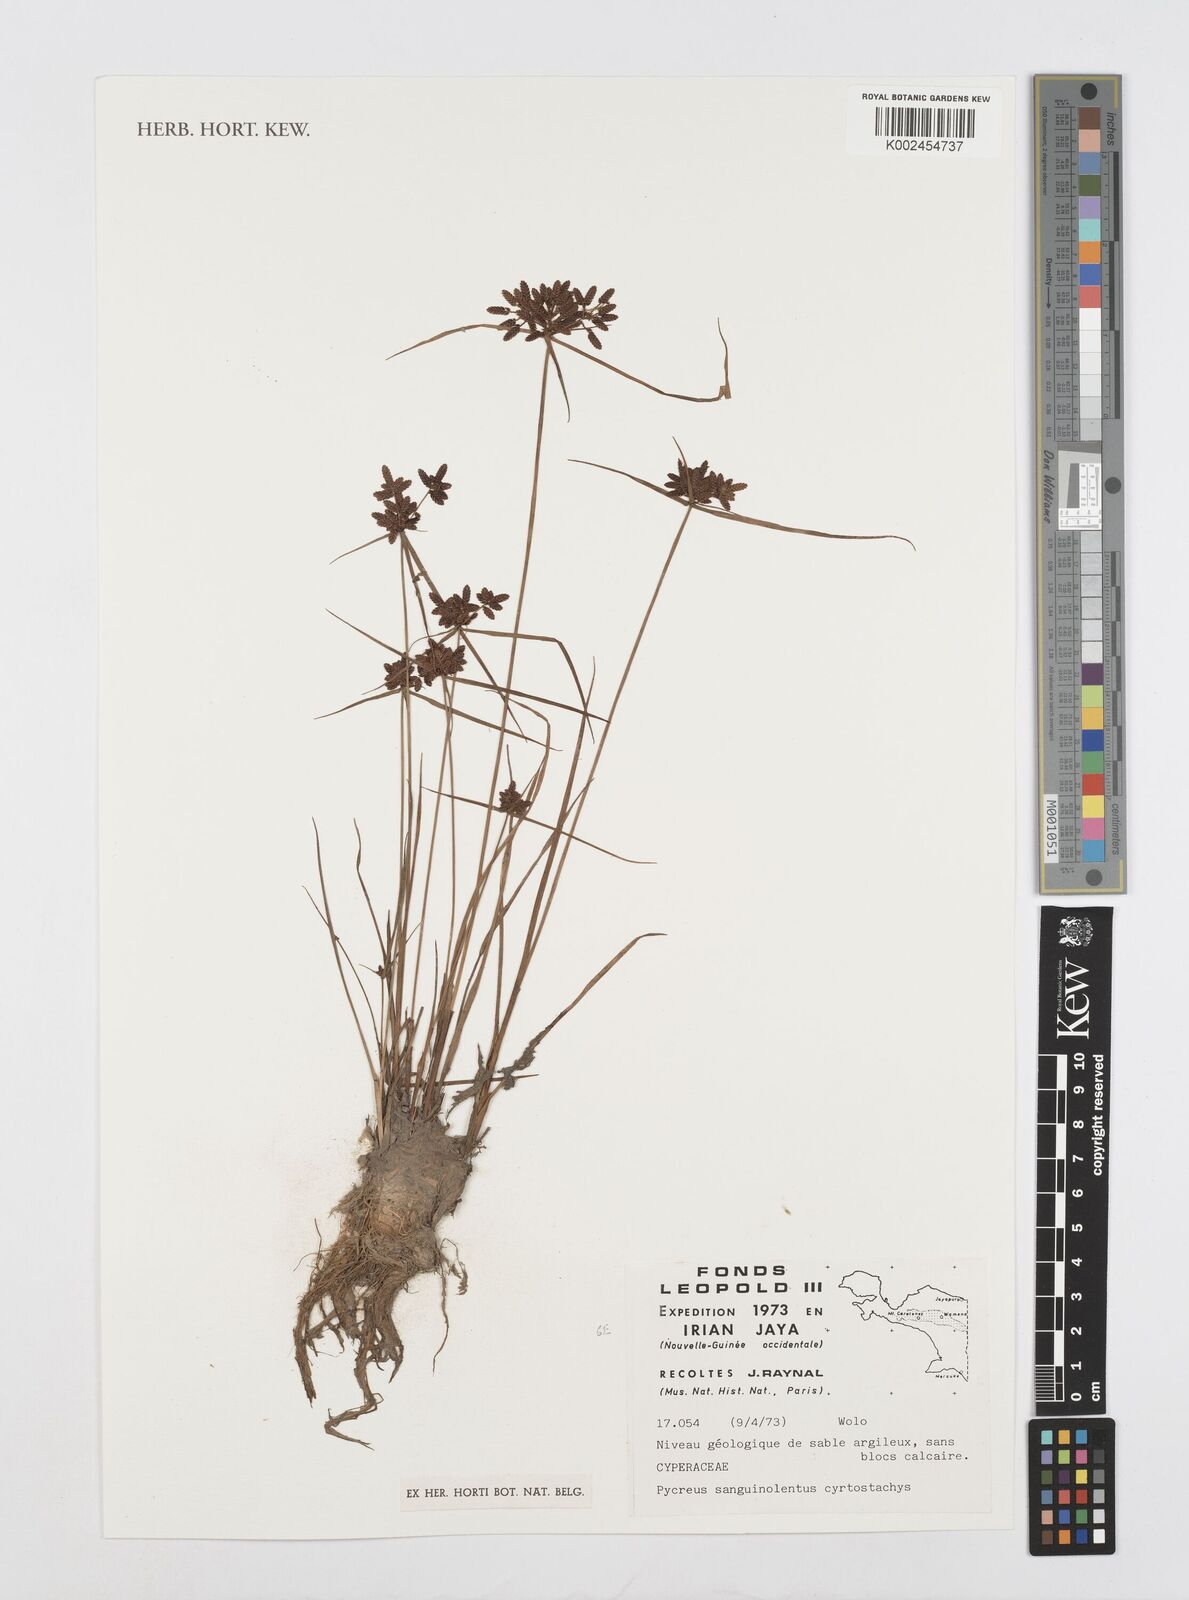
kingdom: Plantae
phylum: Tracheophyta
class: Liliopsida
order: Poales
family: Cyperaceae
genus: Cyperus
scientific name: Cyperus sanguinolentus
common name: Purpleglume flatsedge
